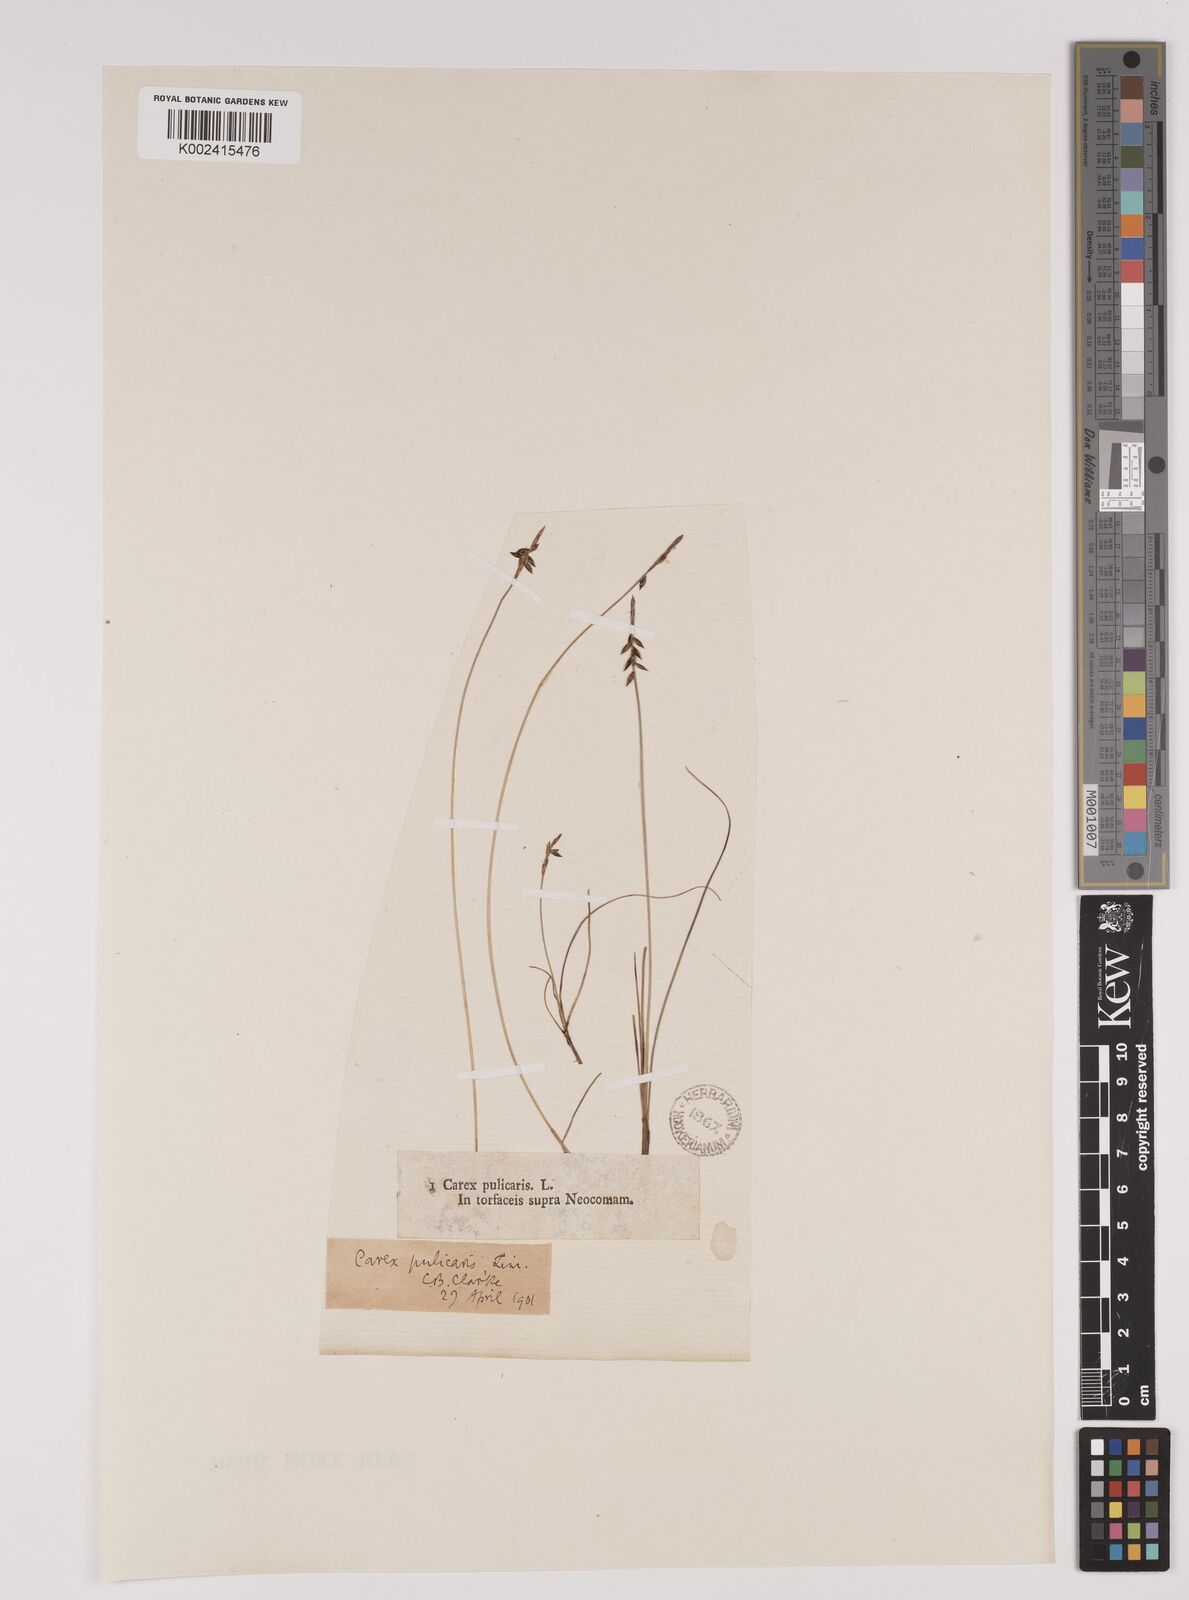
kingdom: Plantae
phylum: Tracheophyta
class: Liliopsida
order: Poales
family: Cyperaceae
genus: Carex
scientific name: Carex pulicaris
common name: Flea sedge
